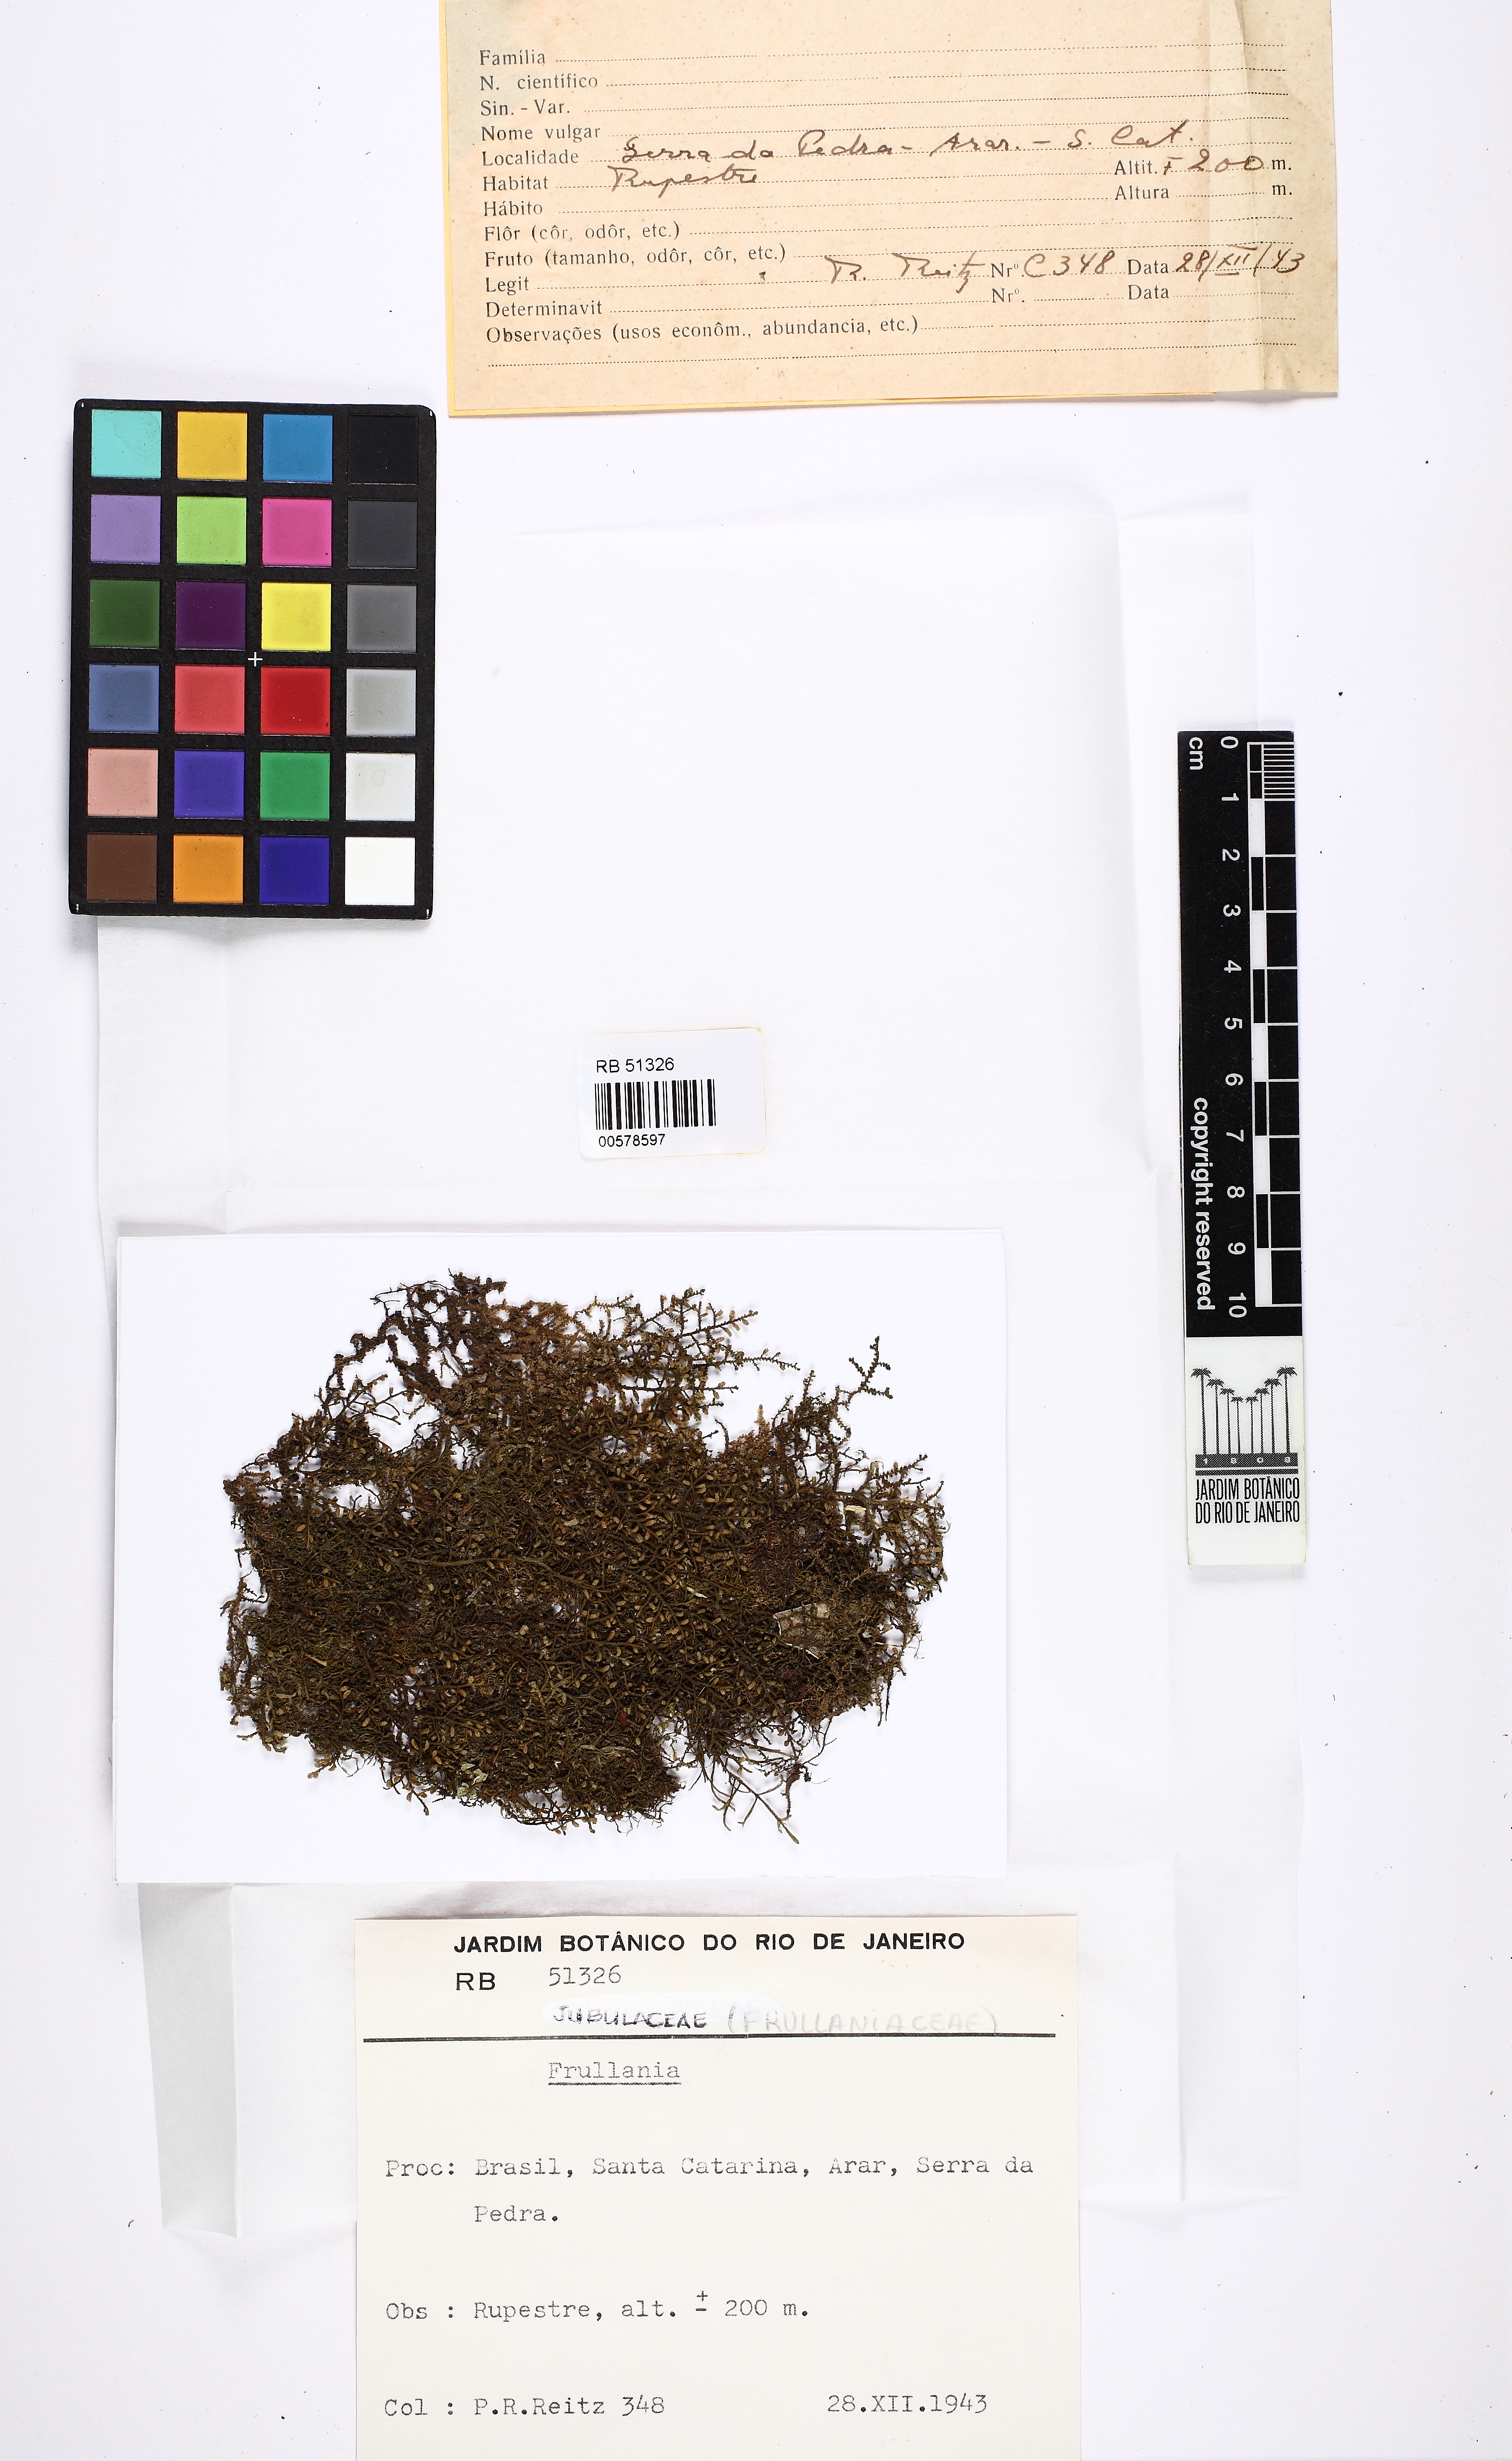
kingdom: Plantae
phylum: Marchantiophyta
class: Jungermanniopsida
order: Porellales
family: Frullaniaceae
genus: Frullania
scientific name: Frullania
